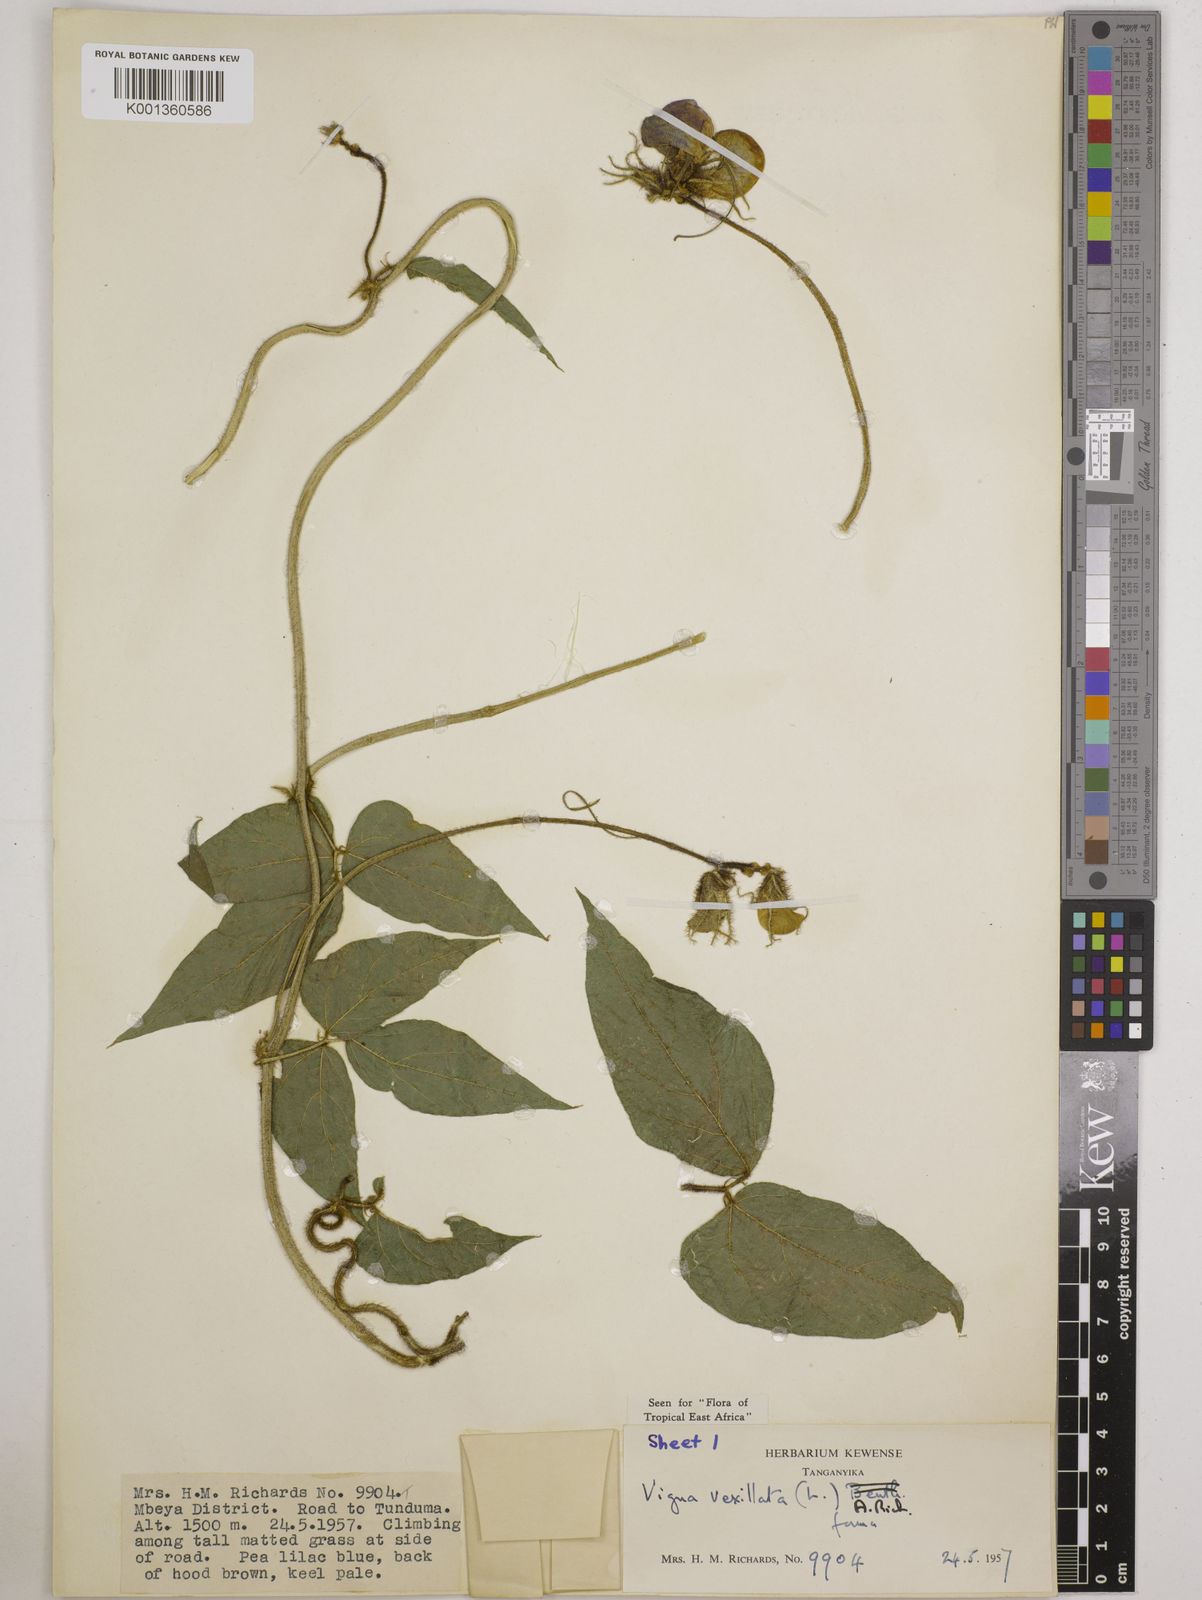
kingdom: Plantae
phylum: Tracheophyta
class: Magnoliopsida
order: Fabales
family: Fabaceae
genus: Vigna
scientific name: Vigna vexillata
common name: Zombi pea
